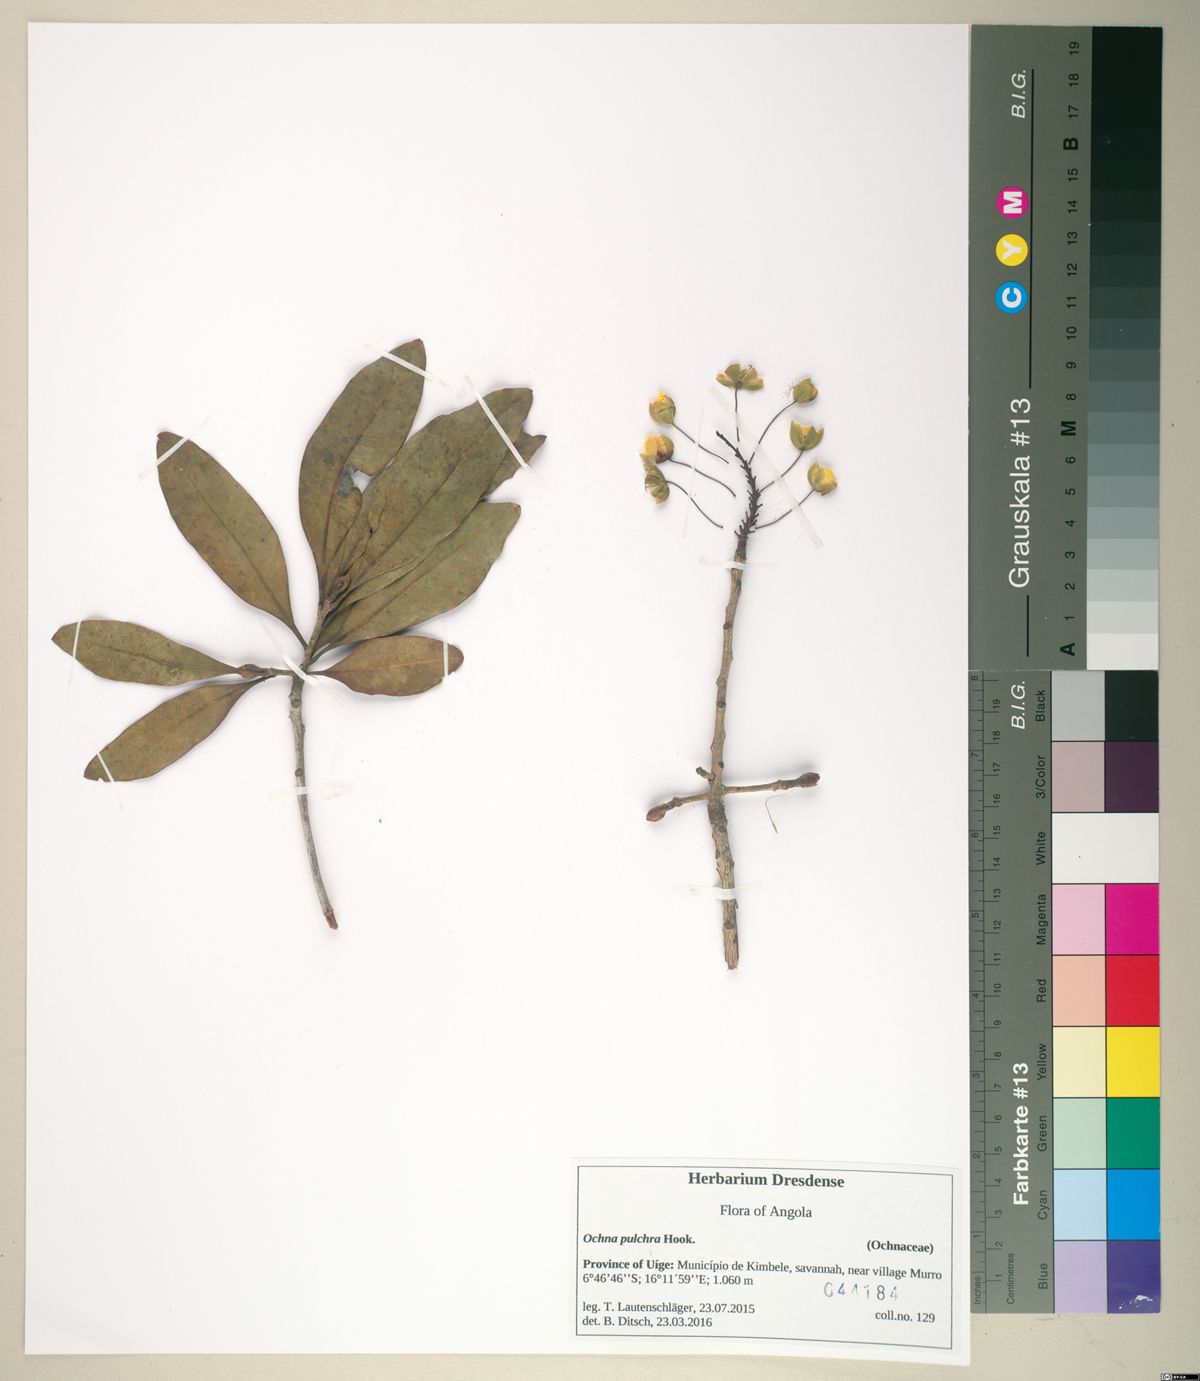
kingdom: Plantae
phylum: Tracheophyta
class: Magnoliopsida
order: Malpighiales
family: Ochnaceae
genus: Ochna
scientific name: Ochna pulchra
